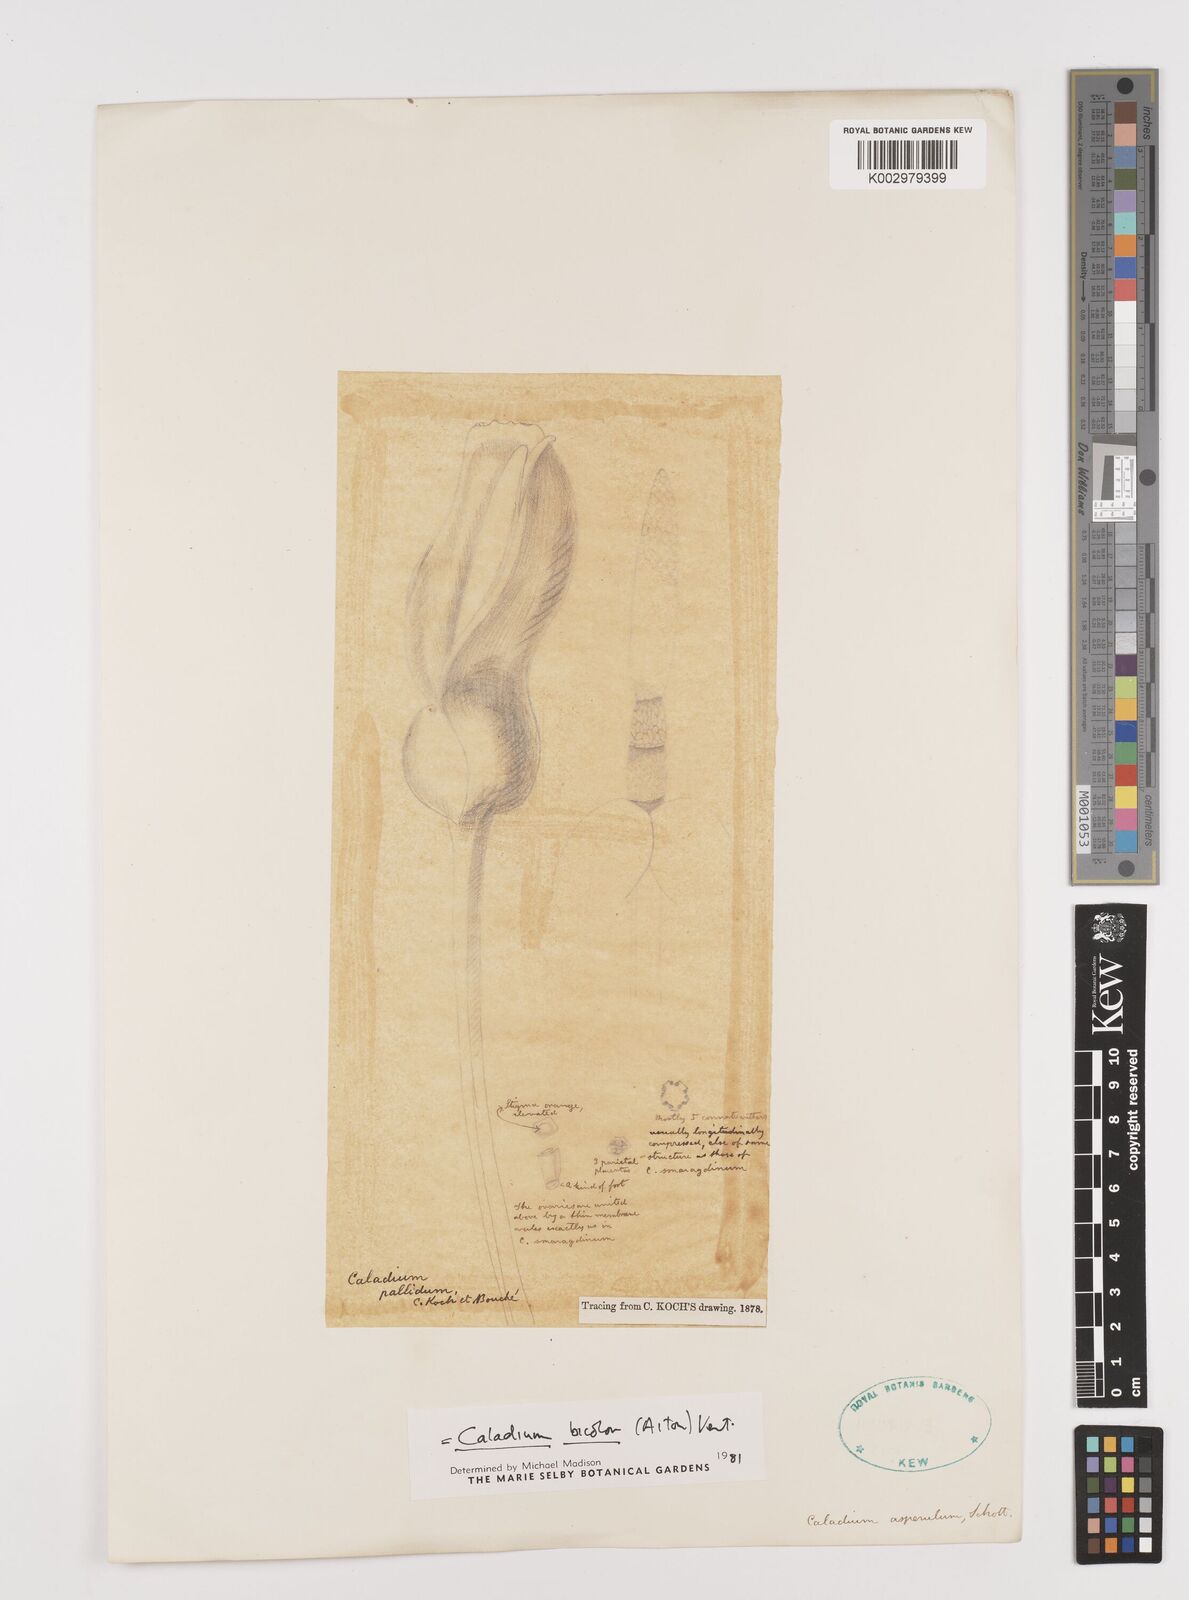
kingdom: Plantae
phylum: Tracheophyta
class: Liliopsida
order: Alismatales
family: Araceae
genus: Caladium
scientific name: Caladium bicolor
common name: Artist's pallet
